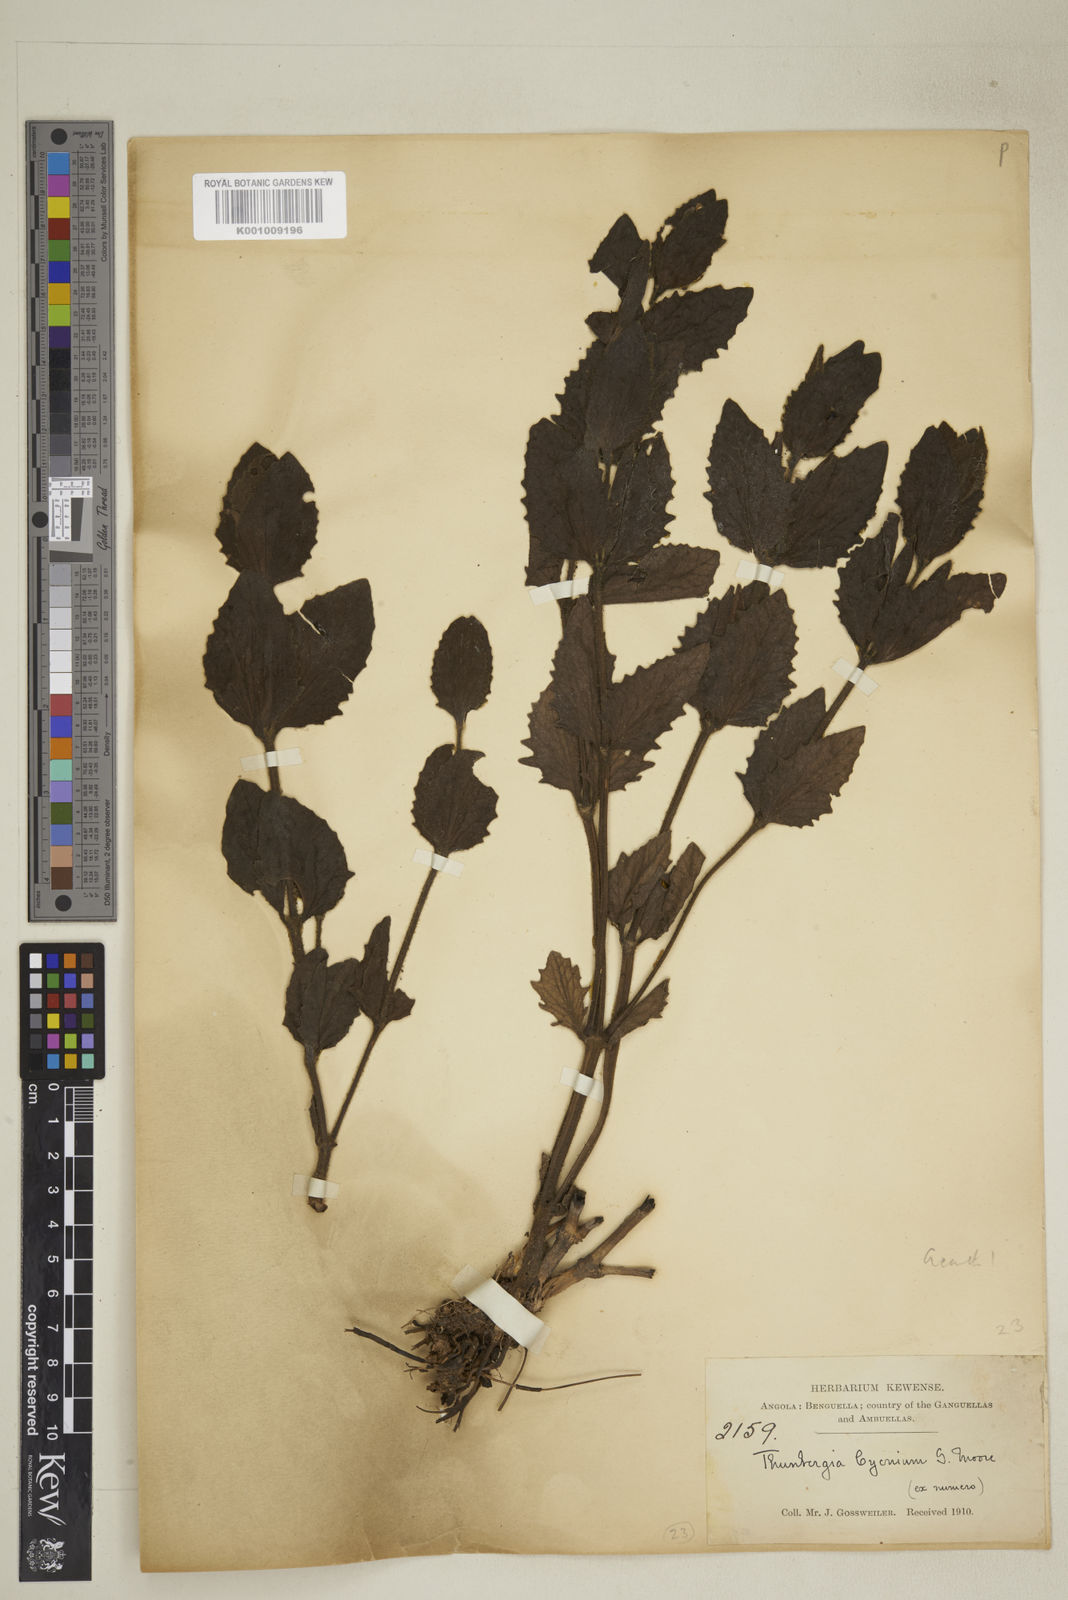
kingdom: Plantae
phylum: Tracheophyta
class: Magnoliopsida
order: Lamiales
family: Acanthaceae
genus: Thunbergia
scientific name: Thunbergia cycnium
